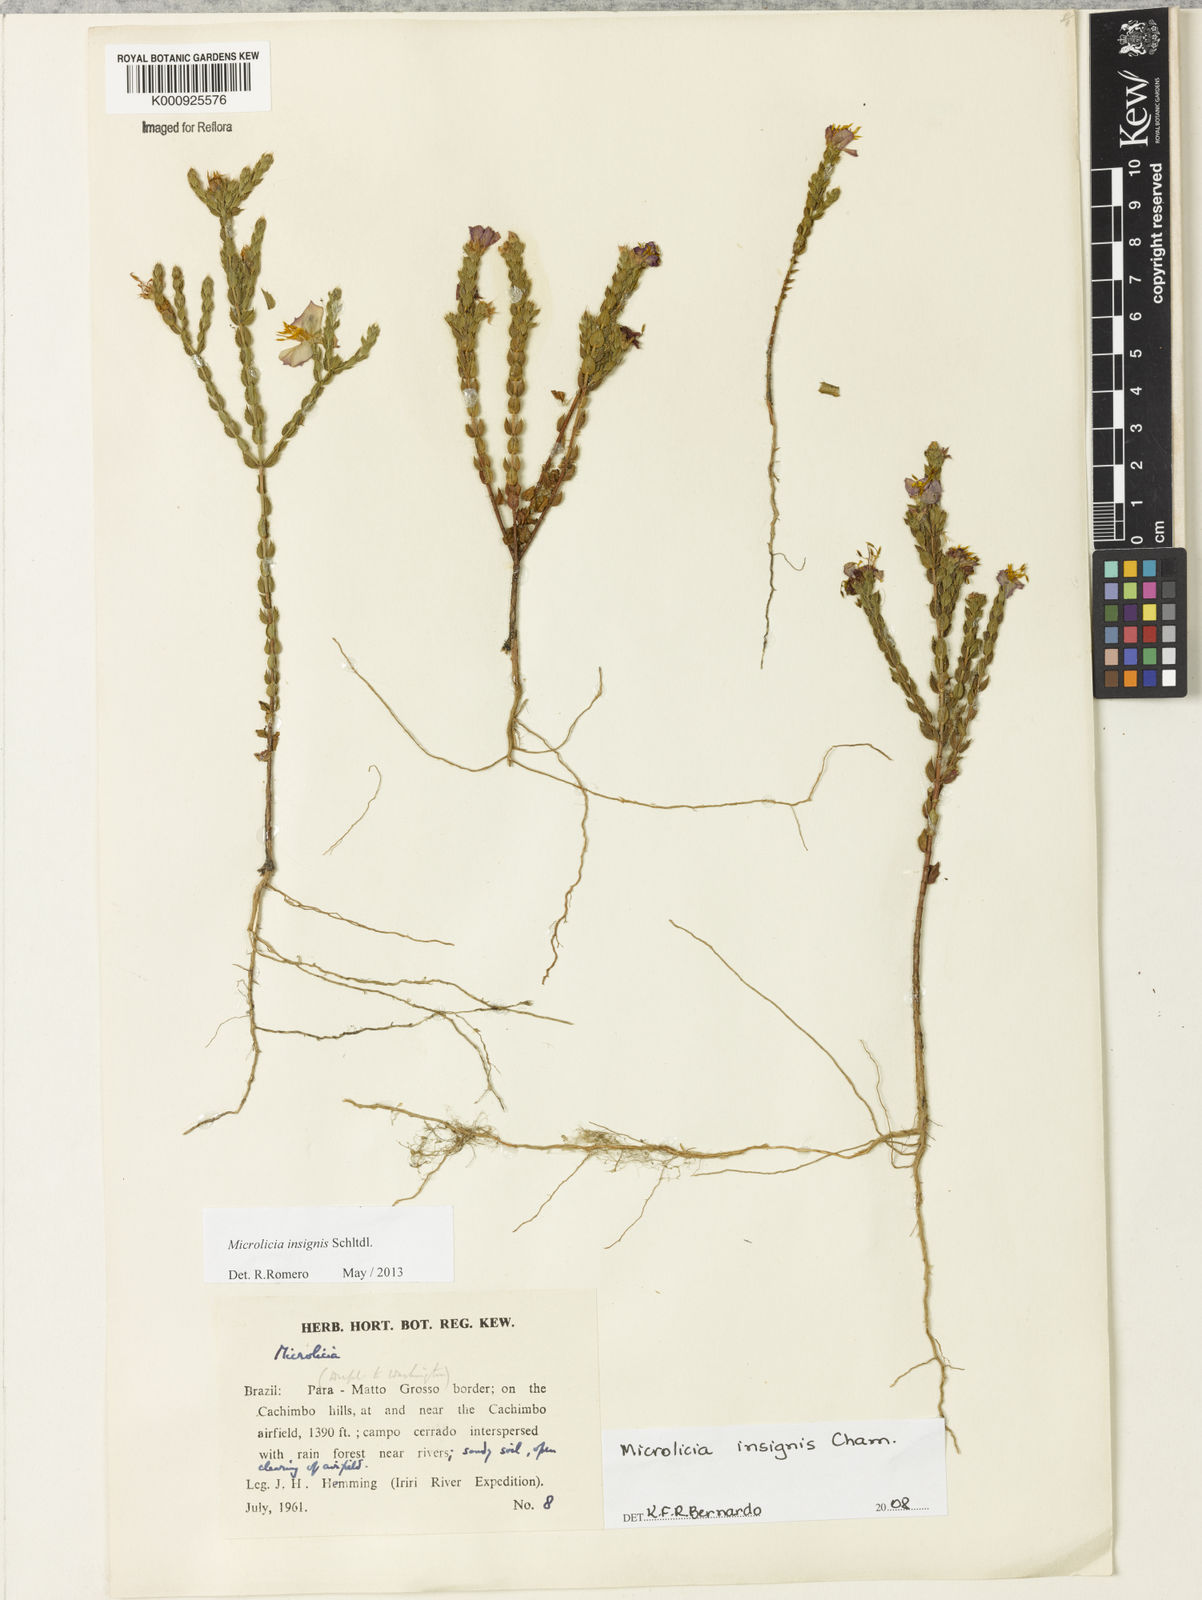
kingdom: Plantae
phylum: Tracheophyta
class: Magnoliopsida
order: Myrtales
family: Melastomataceae
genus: Microlicia
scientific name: Microlicia
